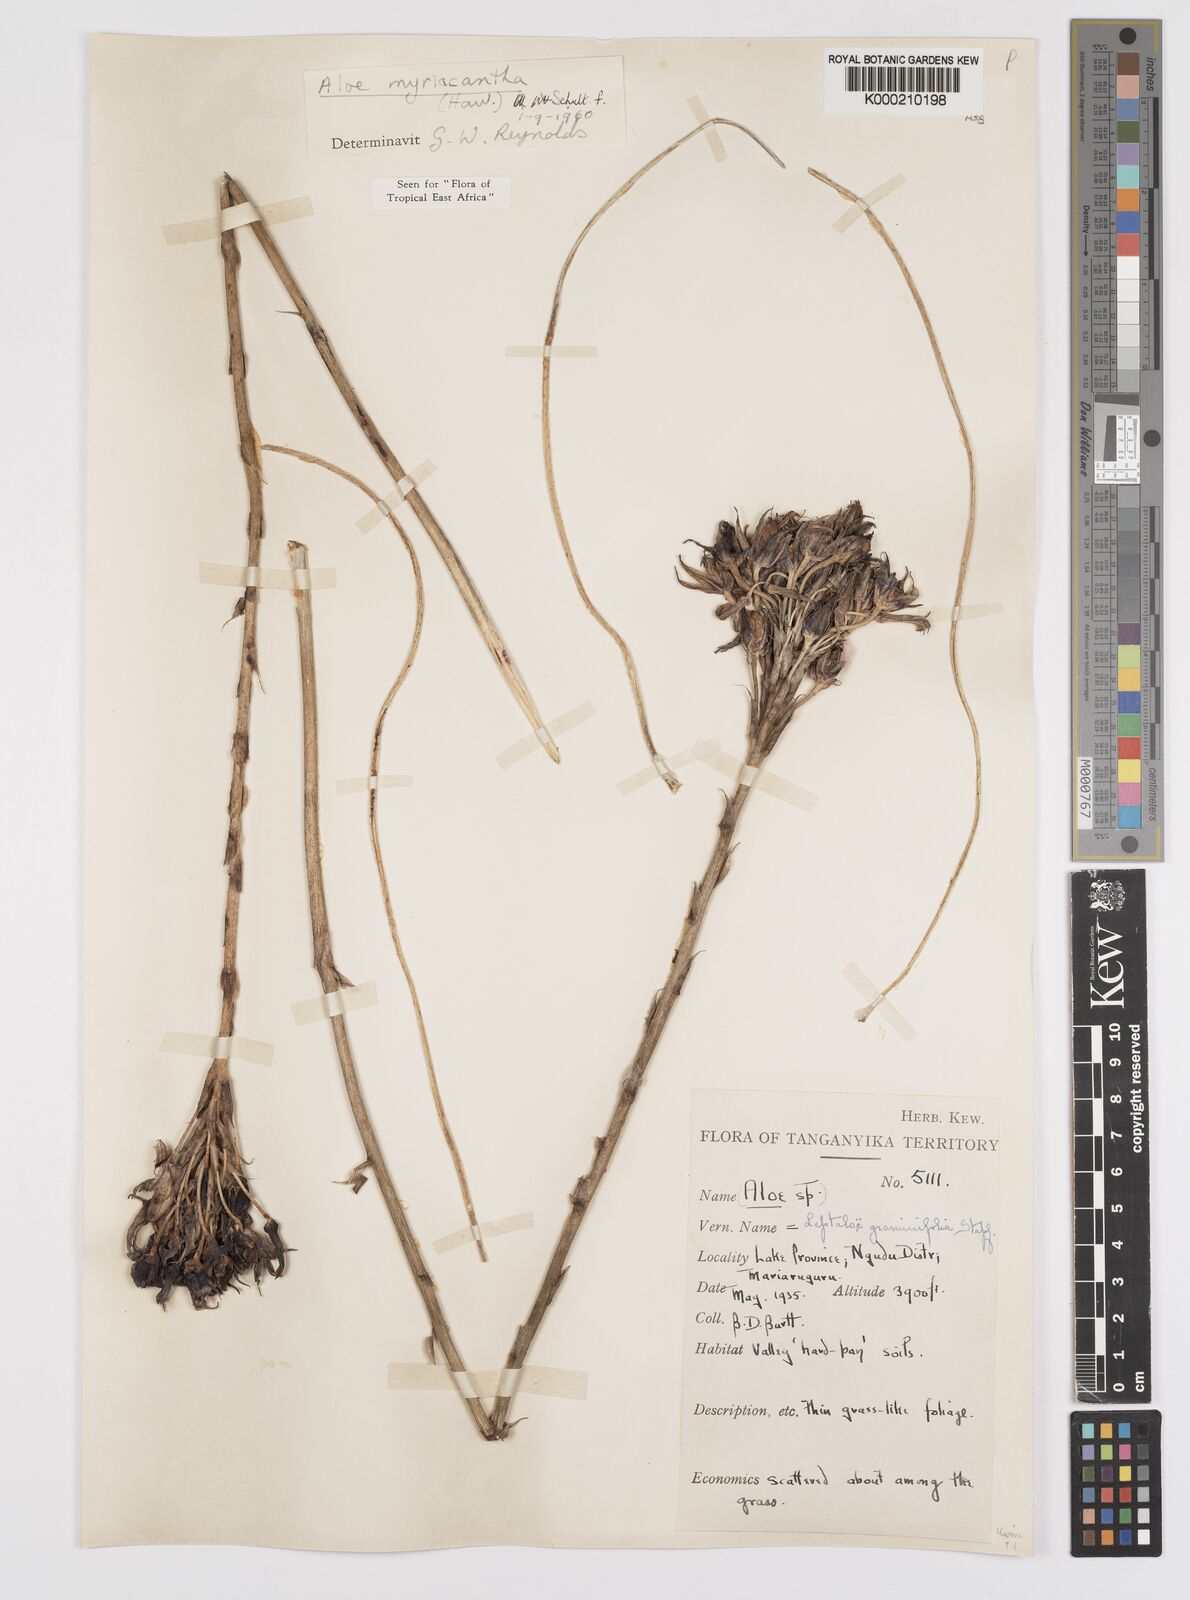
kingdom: Plantae
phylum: Tracheophyta
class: Liliopsida
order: Asparagales
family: Asphodelaceae
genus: Aloe
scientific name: Aloe
